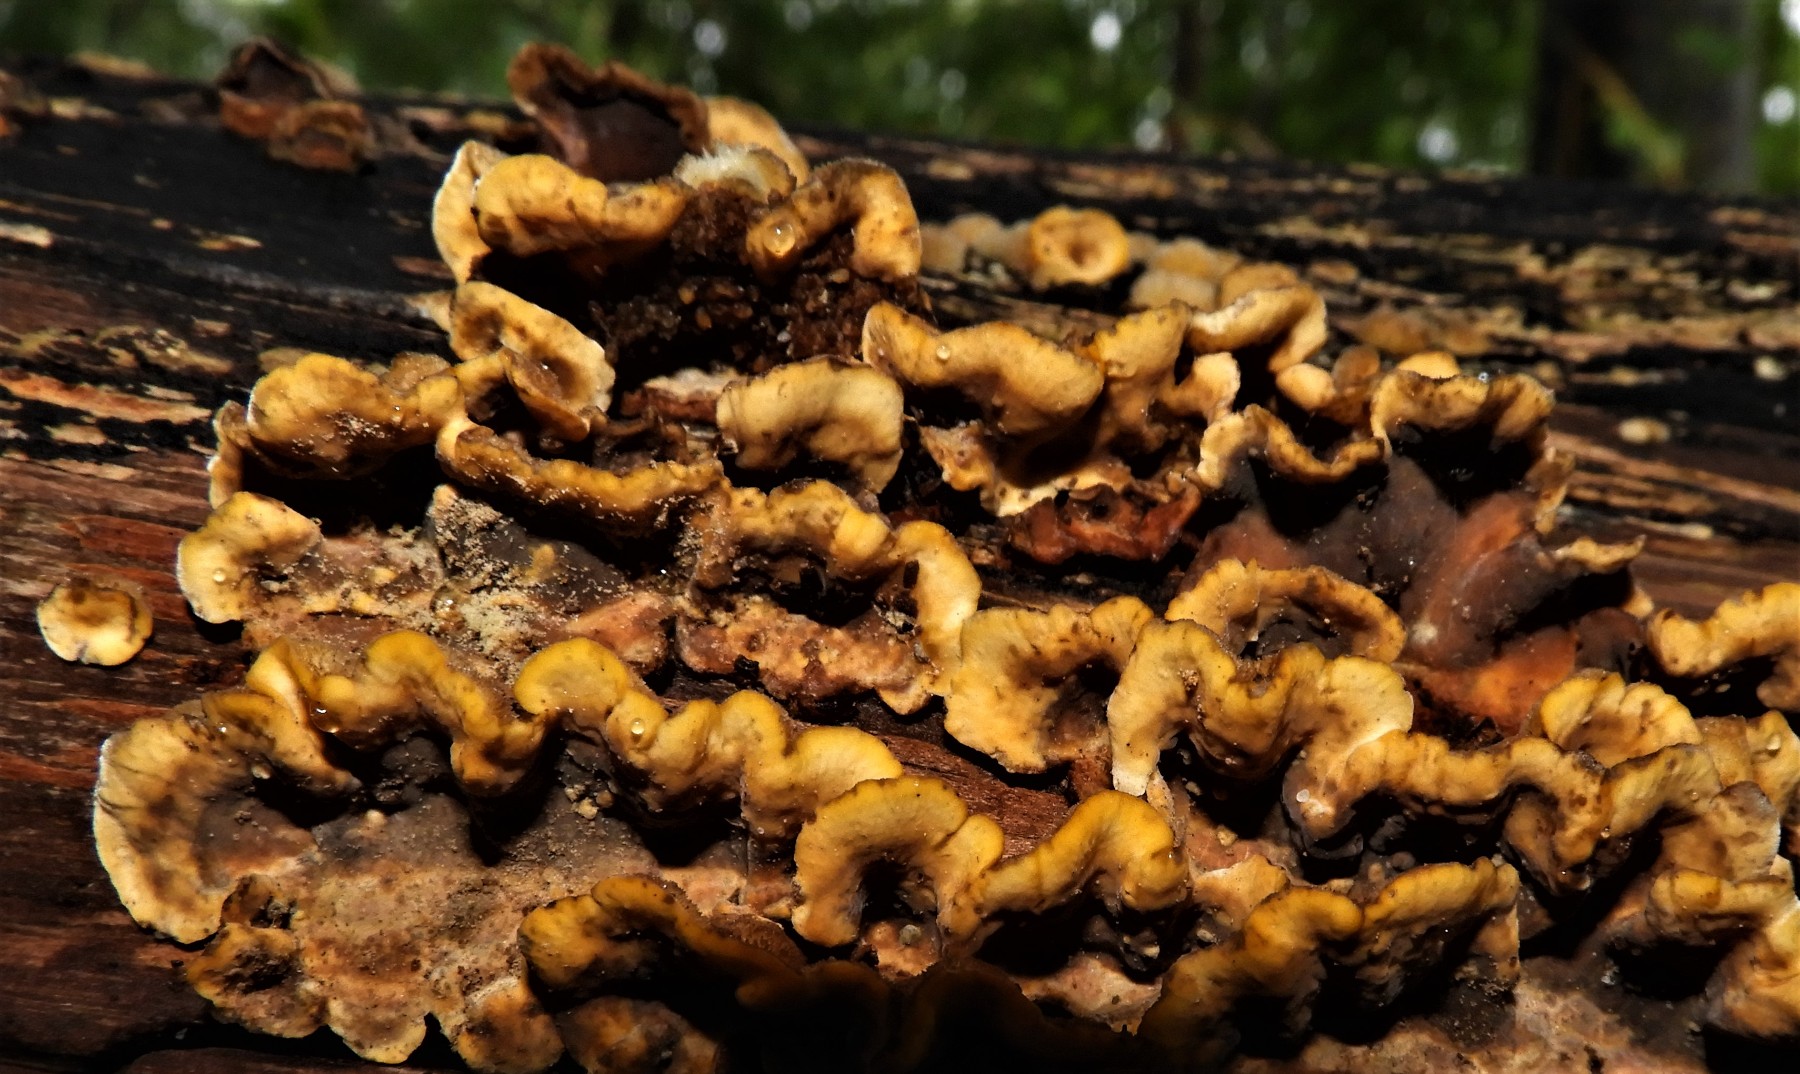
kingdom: Fungi
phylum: Basidiomycota
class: Agaricomycetes
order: Russulales
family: Stereaceae
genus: Stereum
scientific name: Stereum hirsutum
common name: håret lædersvamp
